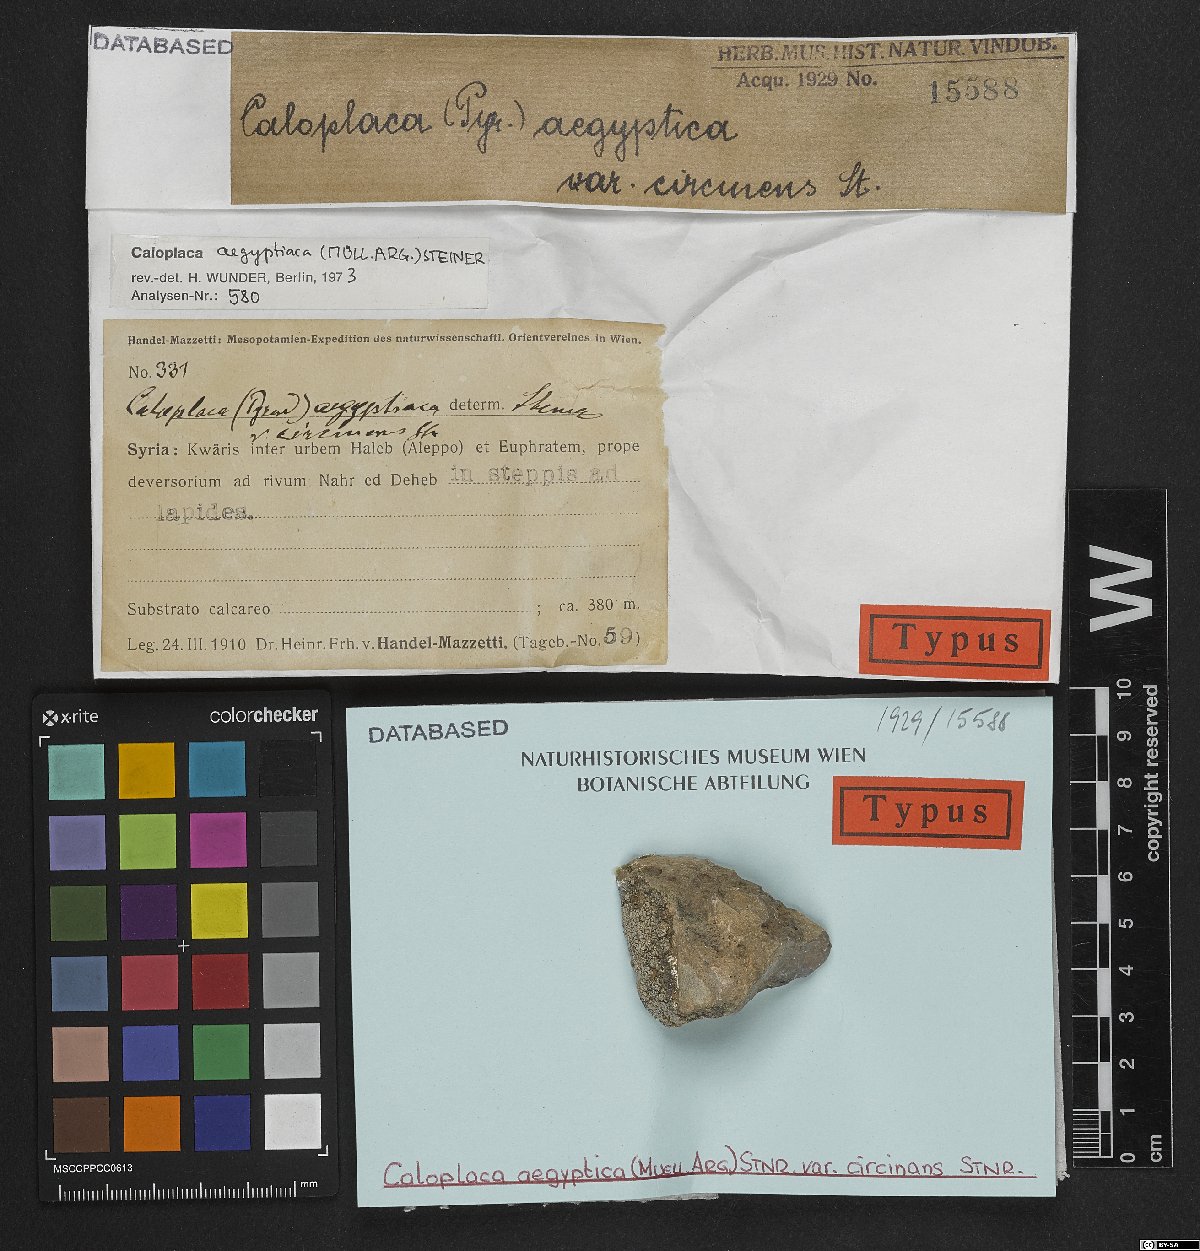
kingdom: Fungi
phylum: Ascomycota
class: Lecanoromycetes
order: Teloschistales
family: Teloschistaceae
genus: Caloplaca
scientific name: Caloplaca
